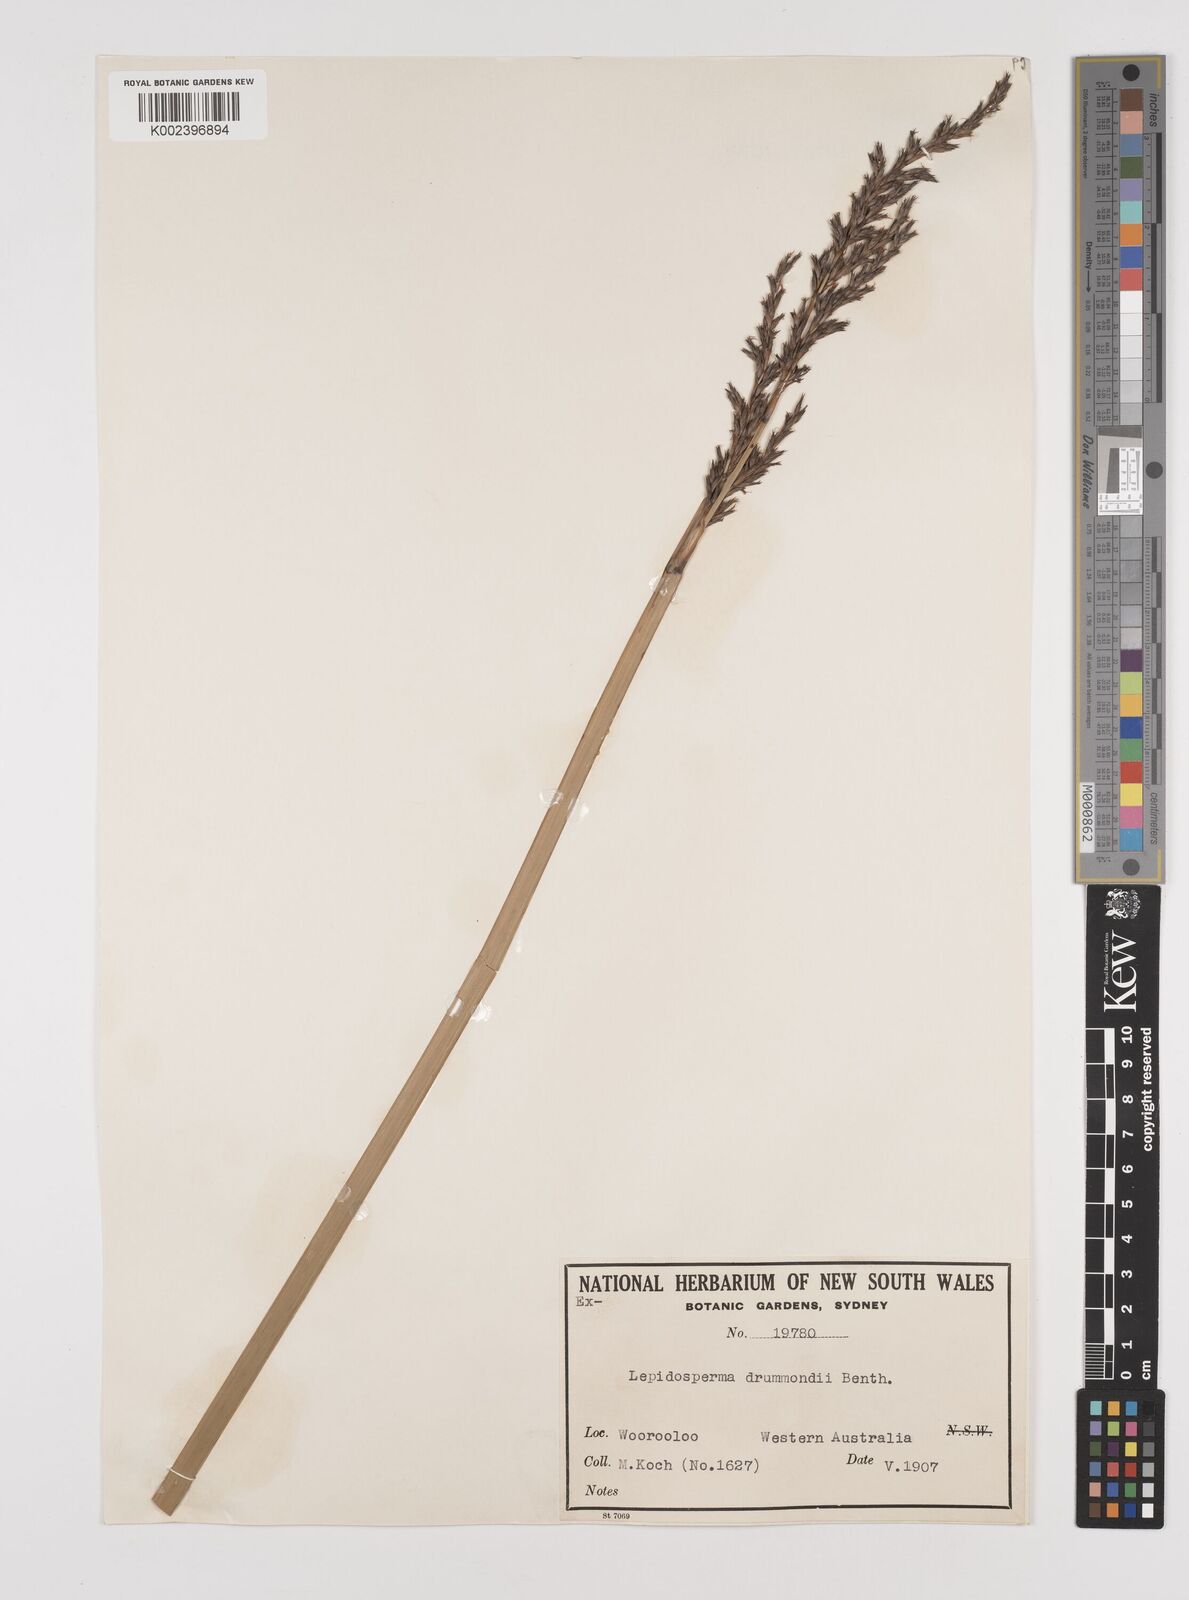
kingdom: Plantae
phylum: Tracheophyta
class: Liliopsida
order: Poales
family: Cyperaceae
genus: Lepidosperma
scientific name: Lepidosperma drummondii
